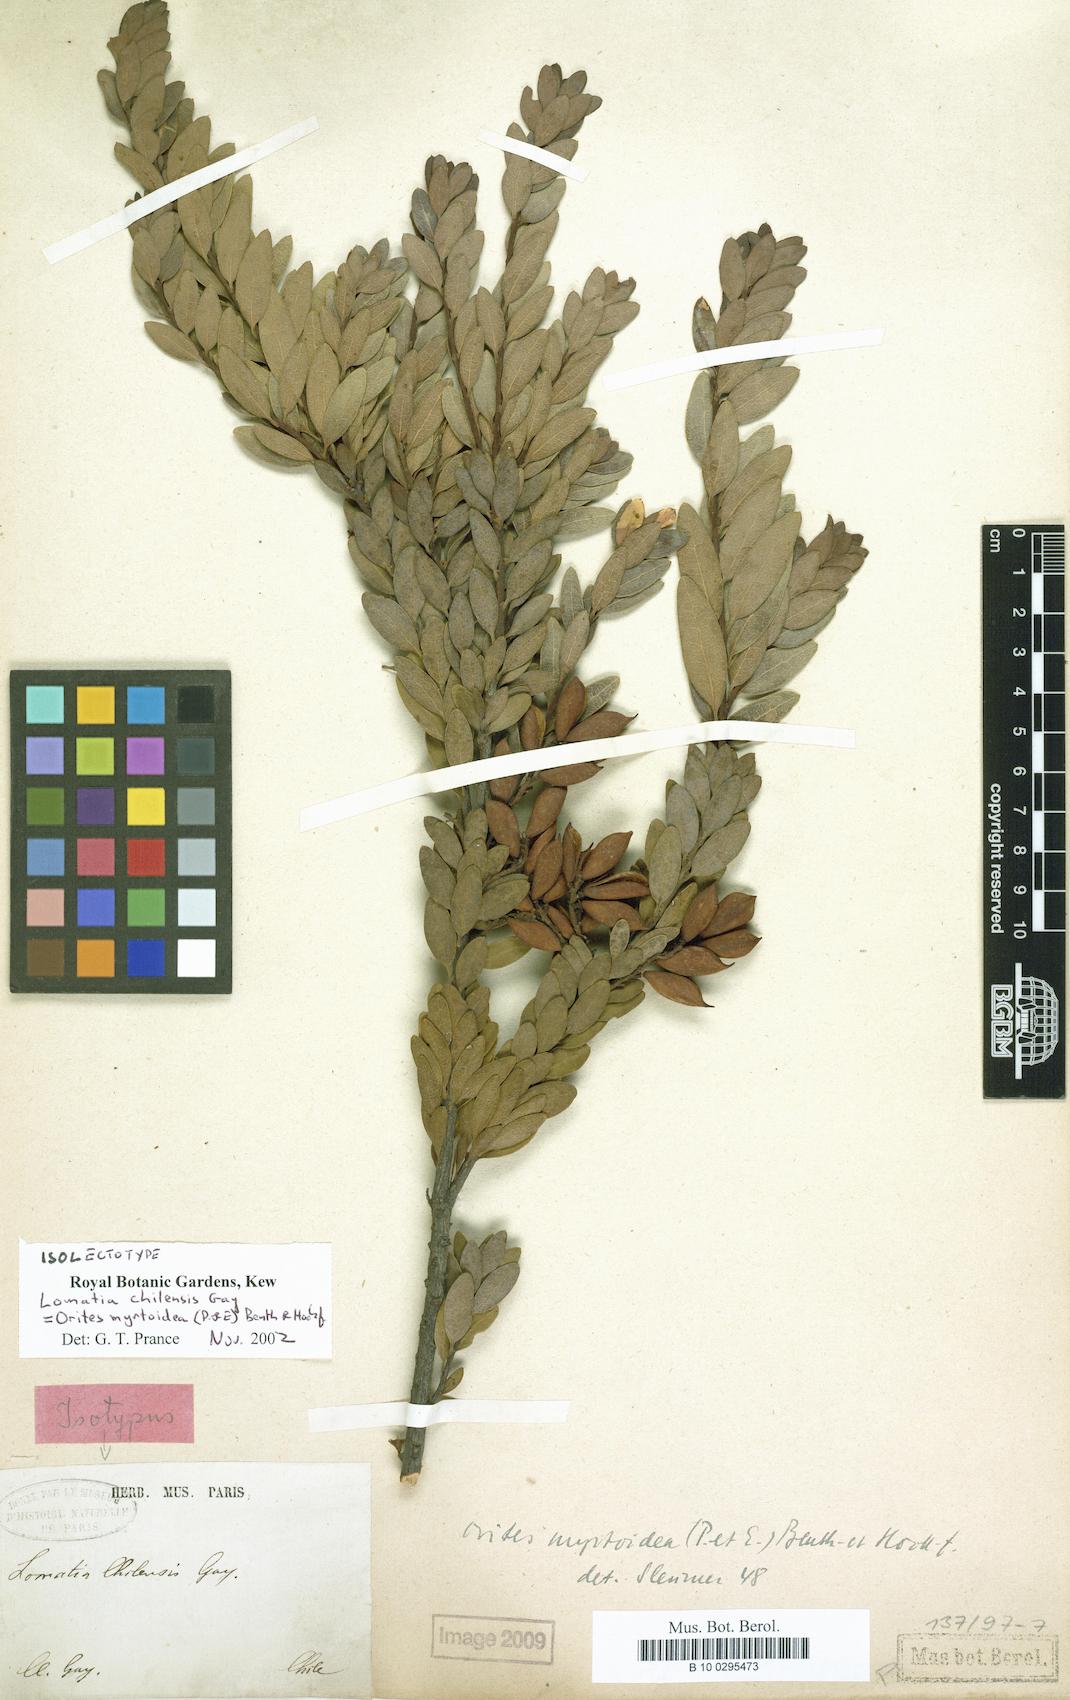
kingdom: Plantae
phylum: Tracheophyta
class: Magnoliopsida
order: Proteales
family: Proteaceae
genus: Orites
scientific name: Orites myrtoideus
